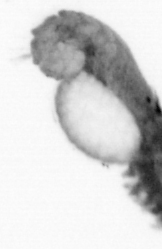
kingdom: Animalia
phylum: Annelida
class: Polychaeta
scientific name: Polychaeta
